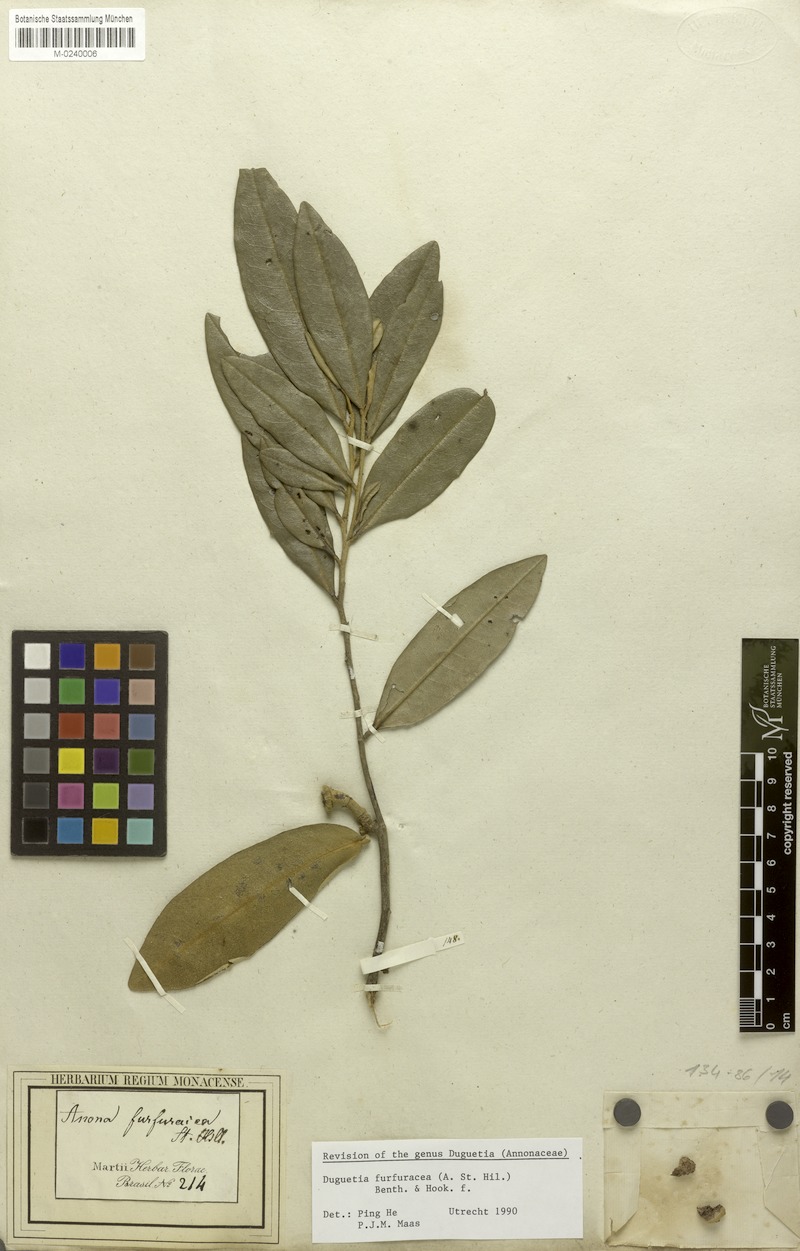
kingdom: Plantae
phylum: Tracheophyta
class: Magnoliopsida
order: Magnoliales
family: Annonaceae
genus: Duguetia
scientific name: Duguetia furfuracea
